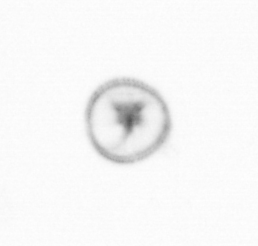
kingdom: Chromista
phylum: Myzozoa
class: Dinophyceae
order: Noctilucales
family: Noctilucaceae
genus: Noctiluca
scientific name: Noctiluca scintillans
